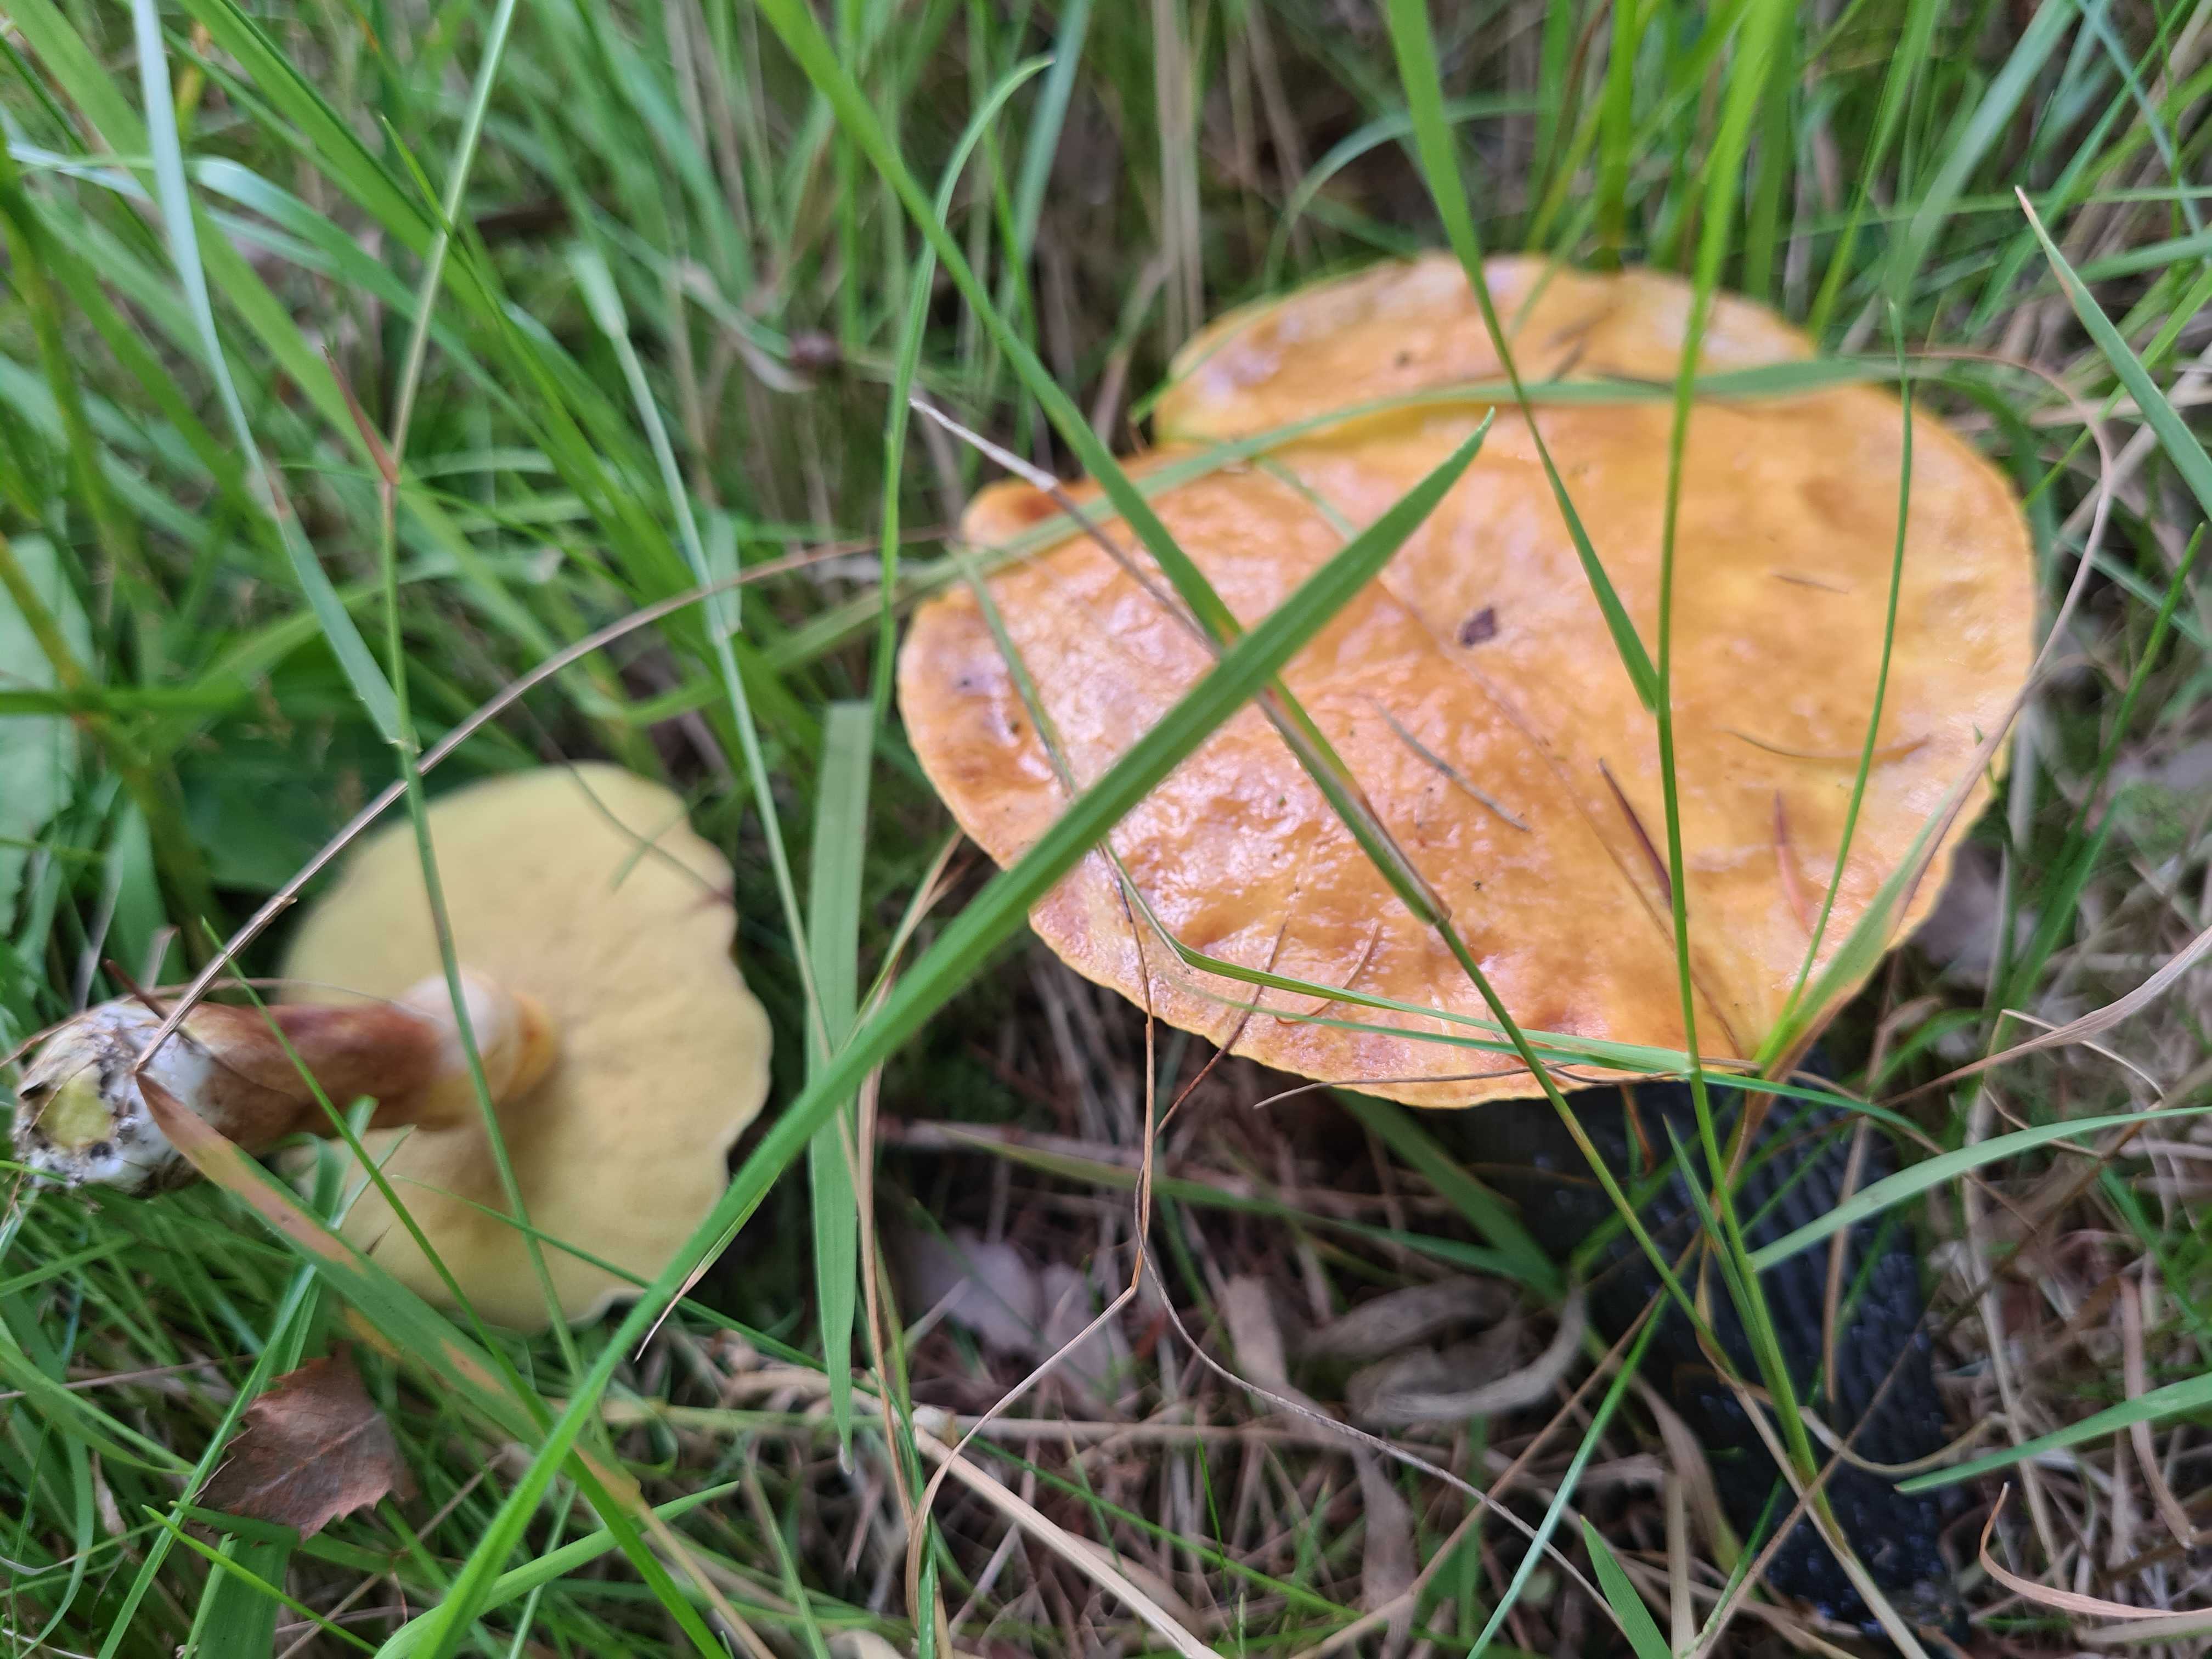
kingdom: Fungi
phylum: Basidiomycota
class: Agaricomycetes
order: Boletales
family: Suillaceae
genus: Suillus
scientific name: Suillus grevillei
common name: lærke-slimrørhat
